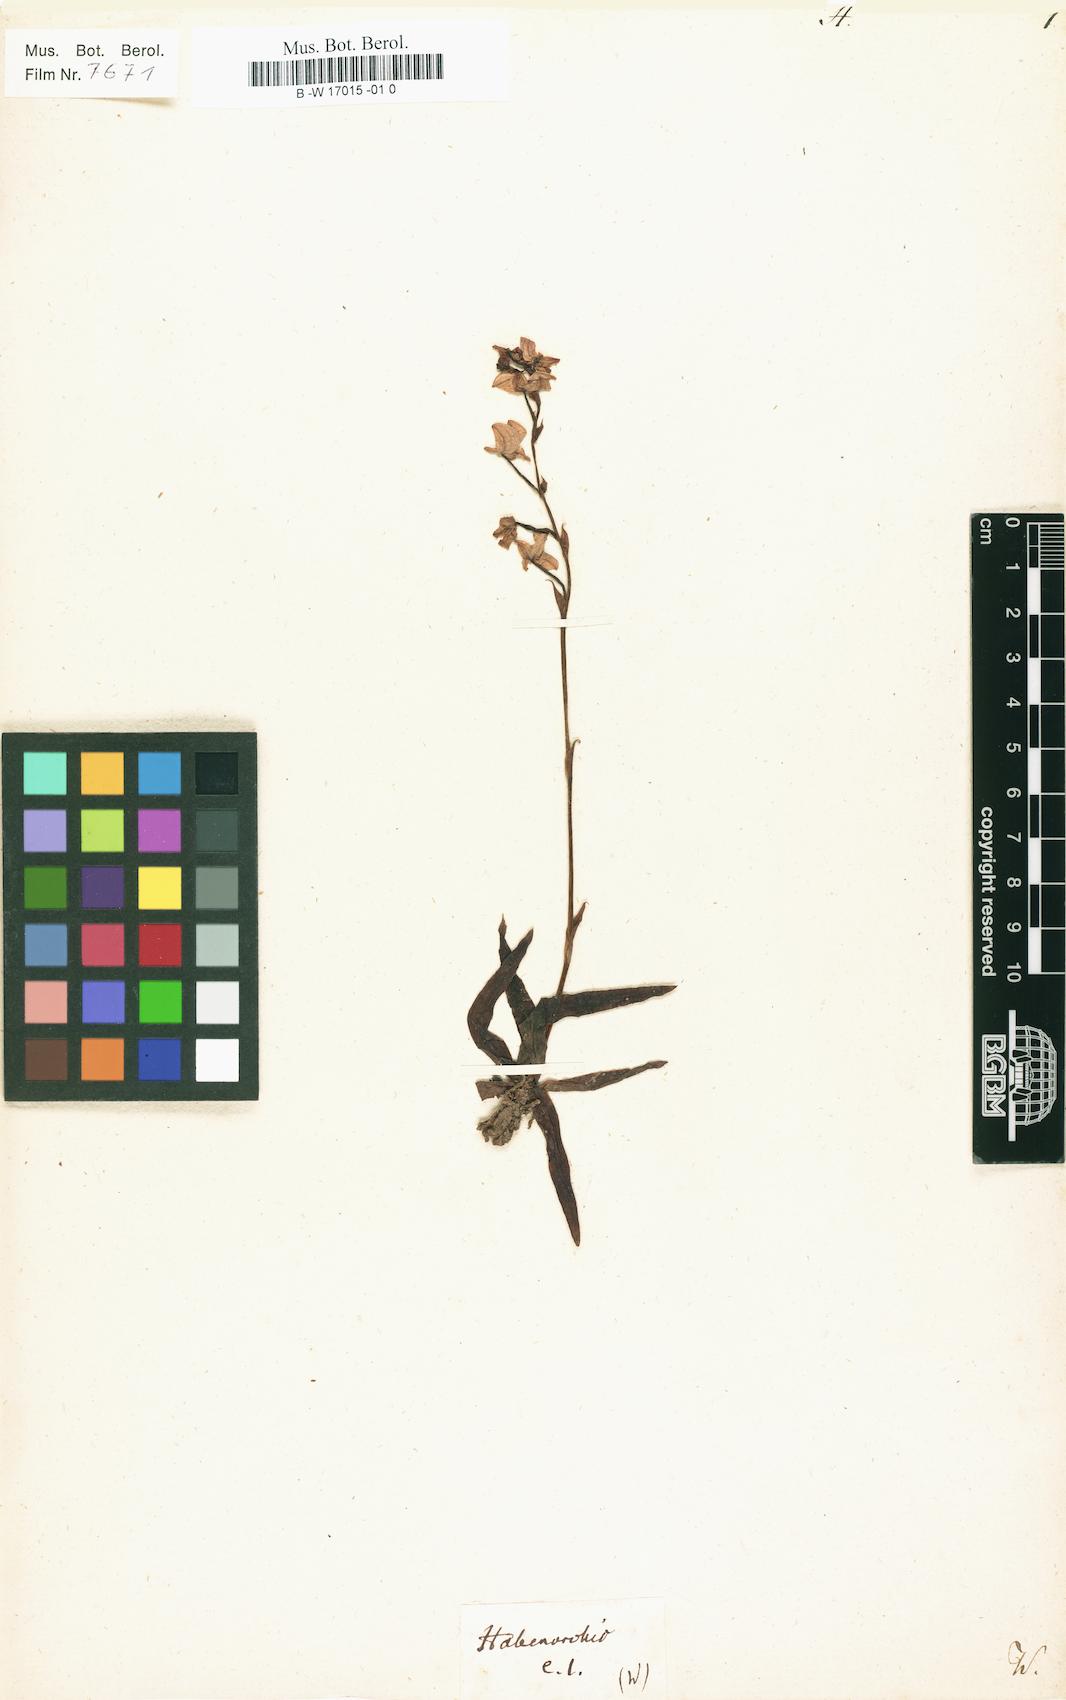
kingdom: Plantae
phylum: Tracheophyta
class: Liliopsida
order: Asparagales
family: Orchidaceae
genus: Habenaria
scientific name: Habenaria
